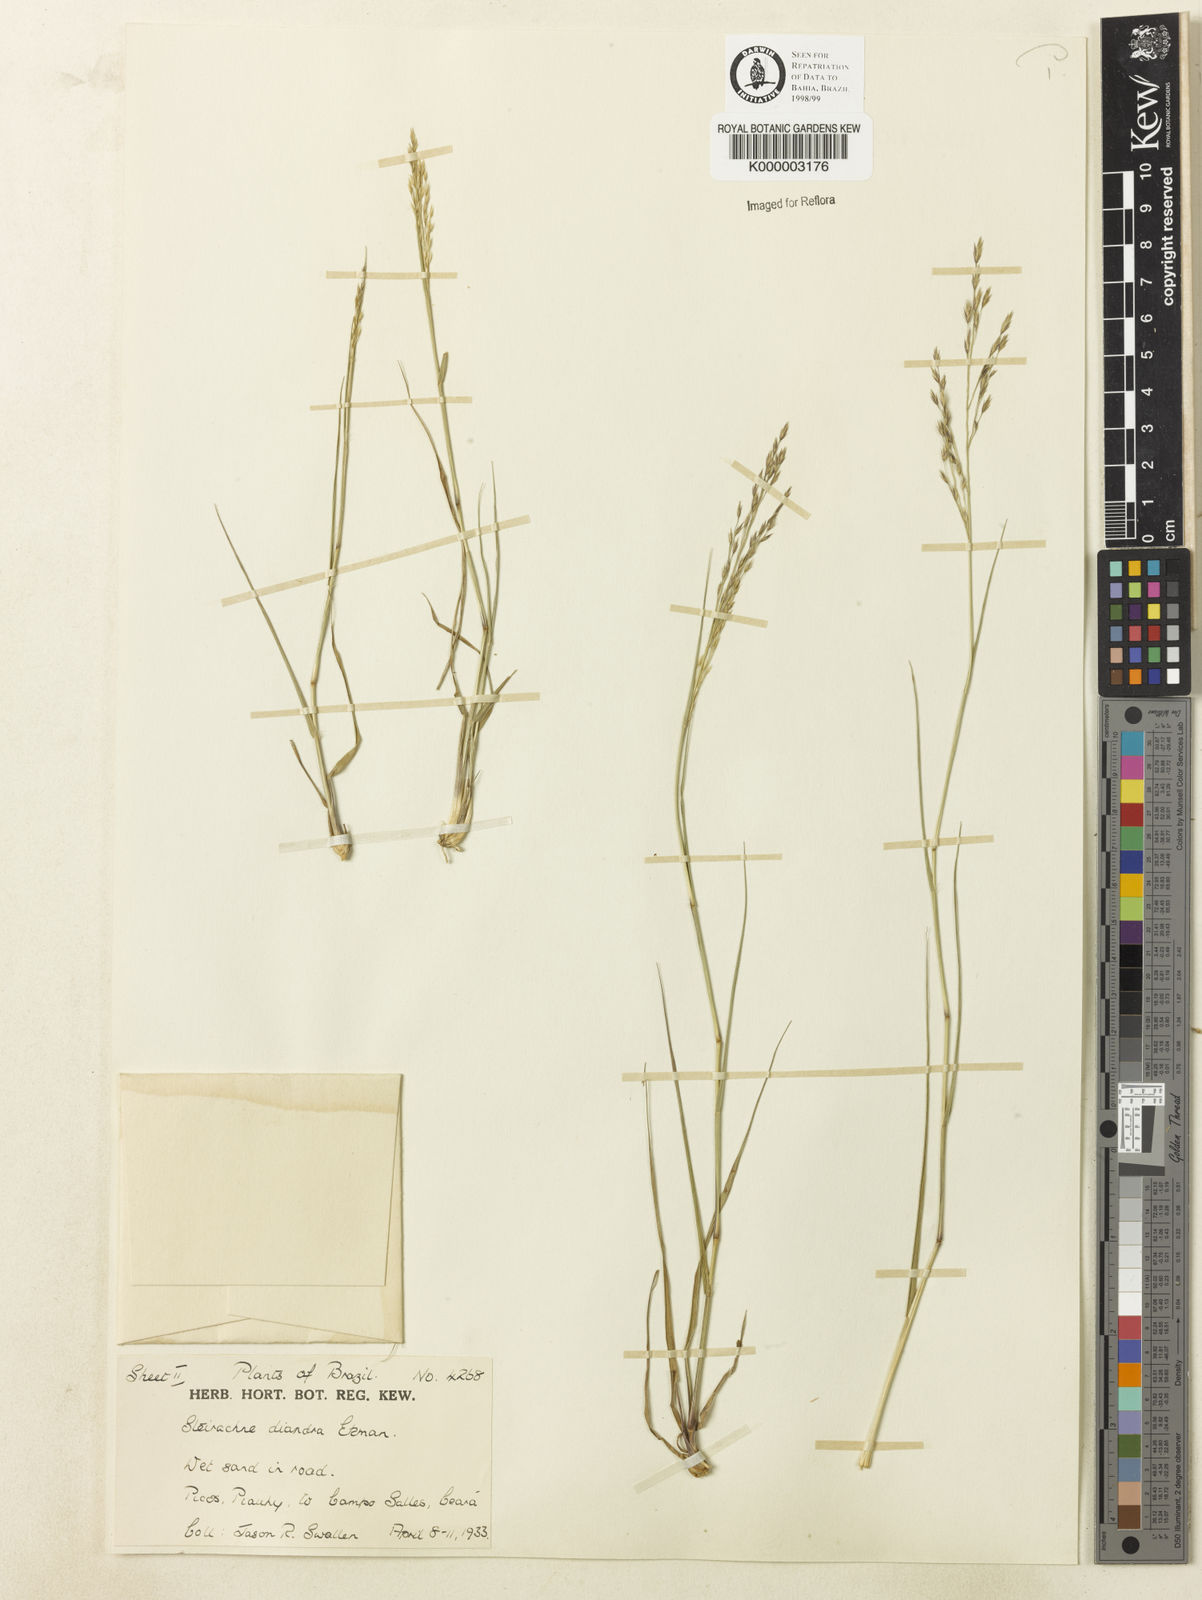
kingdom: Plantae
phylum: Tracheophyta
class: Liliopsida
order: Poales
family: Poaceae
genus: Steirachne
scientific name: Steirachne diandra
